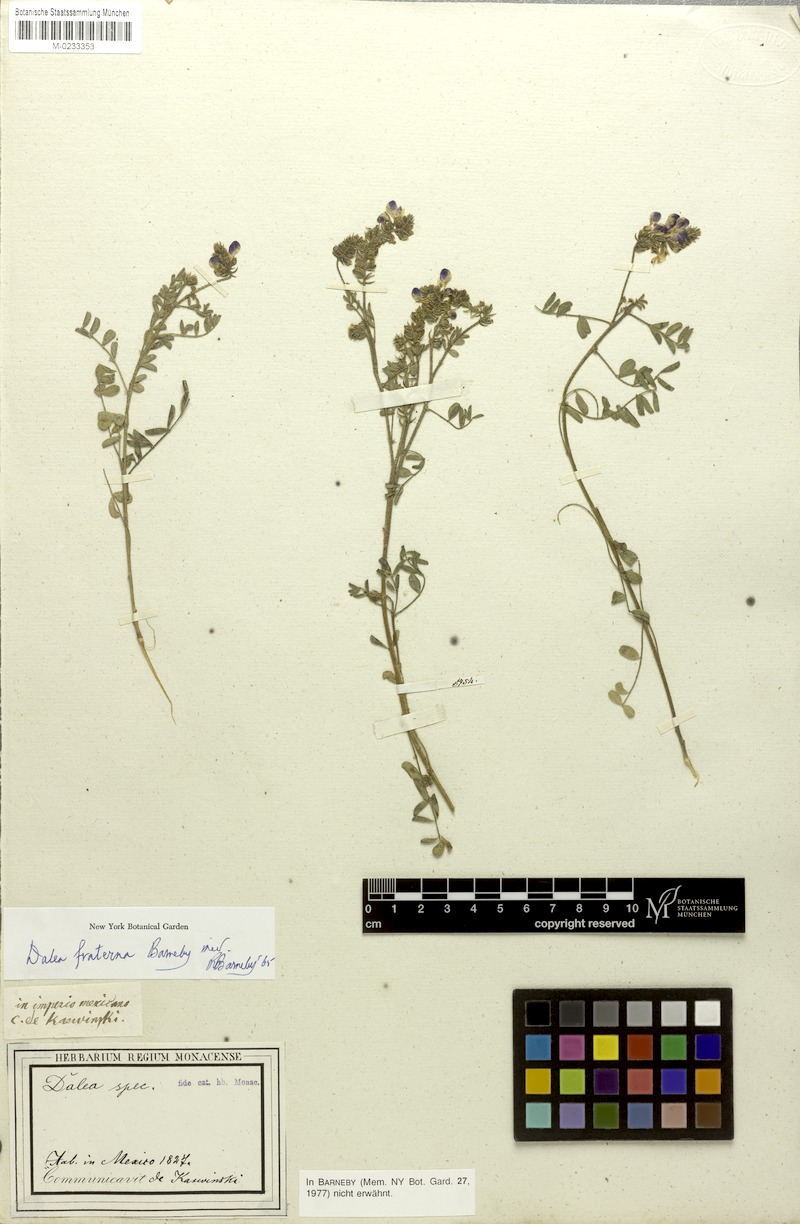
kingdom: Plantae
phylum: Tracheophyta
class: Magnoliopsida
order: Fabales
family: Fabaceae
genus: Dalea
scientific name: Dalea
